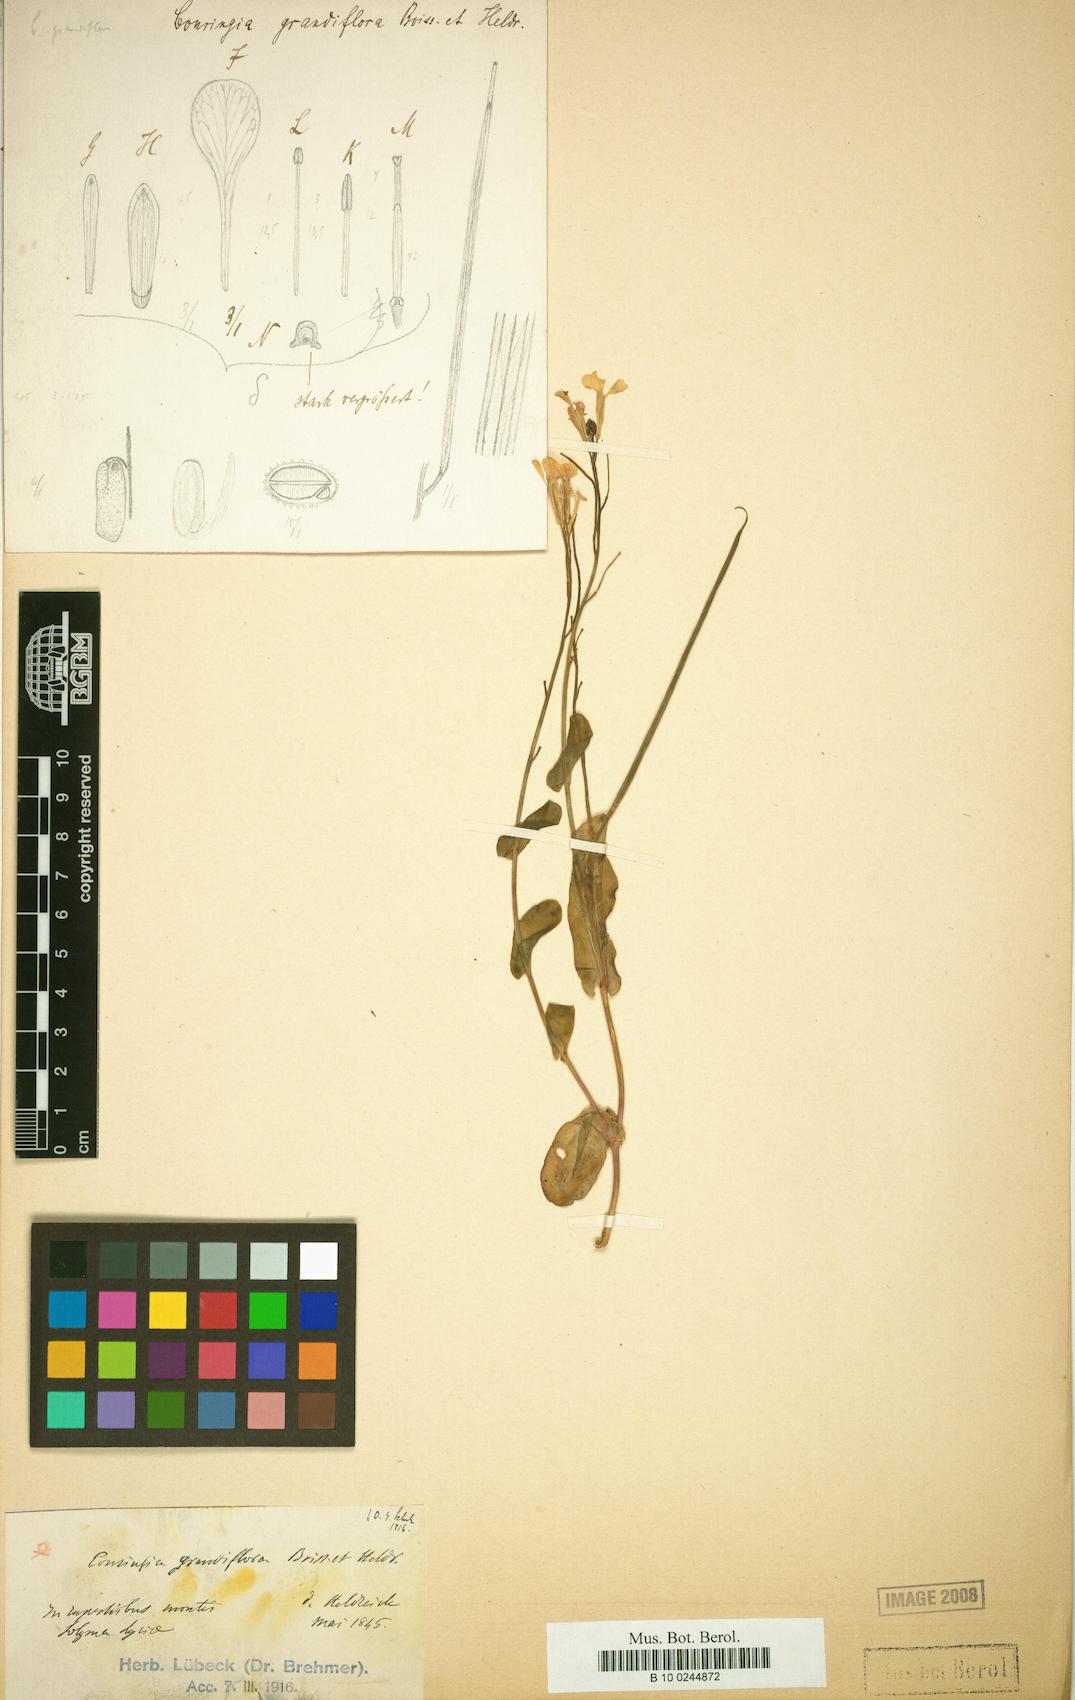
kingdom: Plantae
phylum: Tracheophyta
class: Magnoliopsida
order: Brassicales
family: Brassicaceae
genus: Conringia
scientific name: Conringia grandiflora
